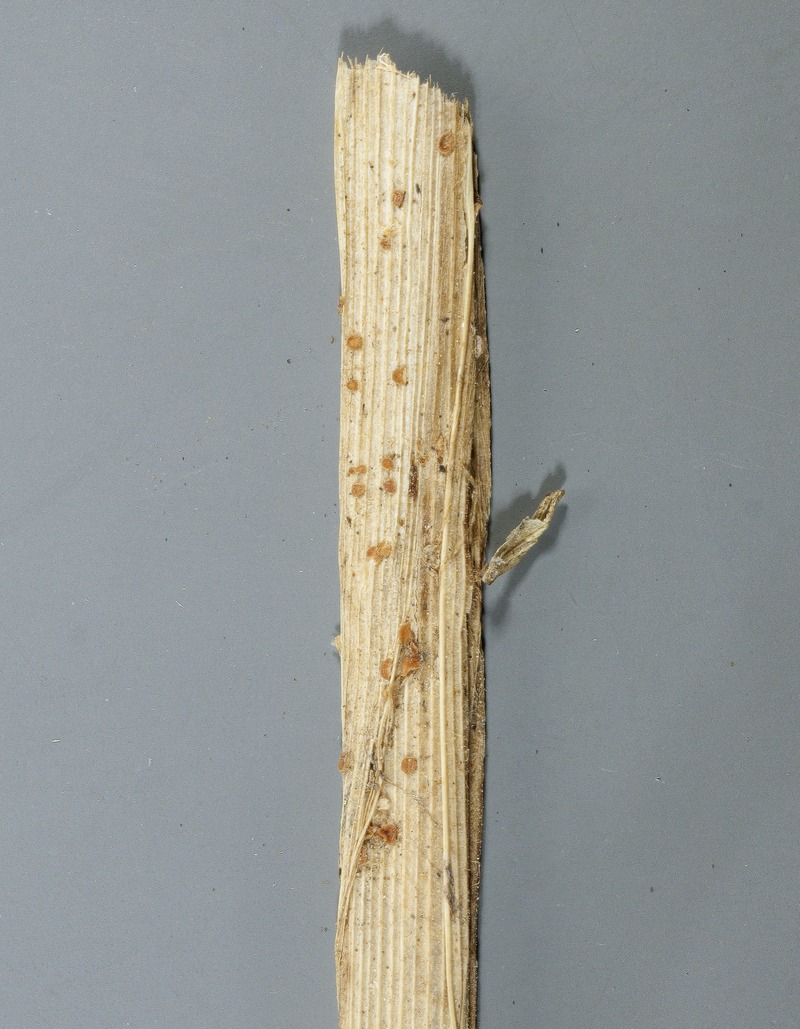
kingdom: Fungi
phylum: Ascomycota
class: Leotiomycetes
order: Helotiales
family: Pezizellaceae
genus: Rodwayella
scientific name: Rodwayella citrinula
